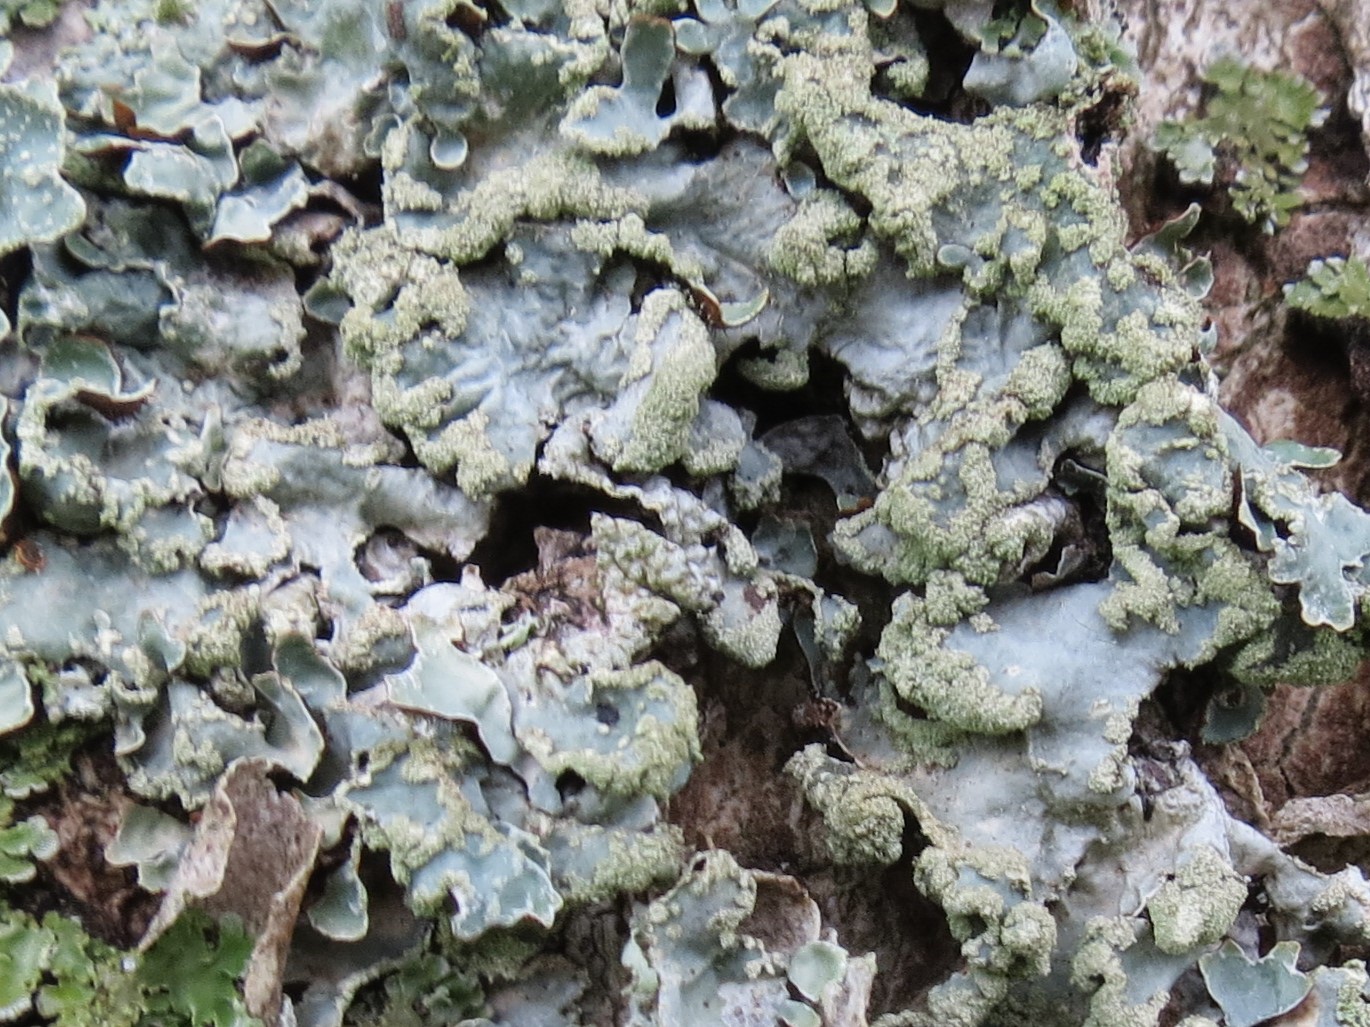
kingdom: Fungi
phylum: Ascomycota
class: Lecanoromycetes
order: Lecanorales
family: Parmeliaceae
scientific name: Parmeliaceae
